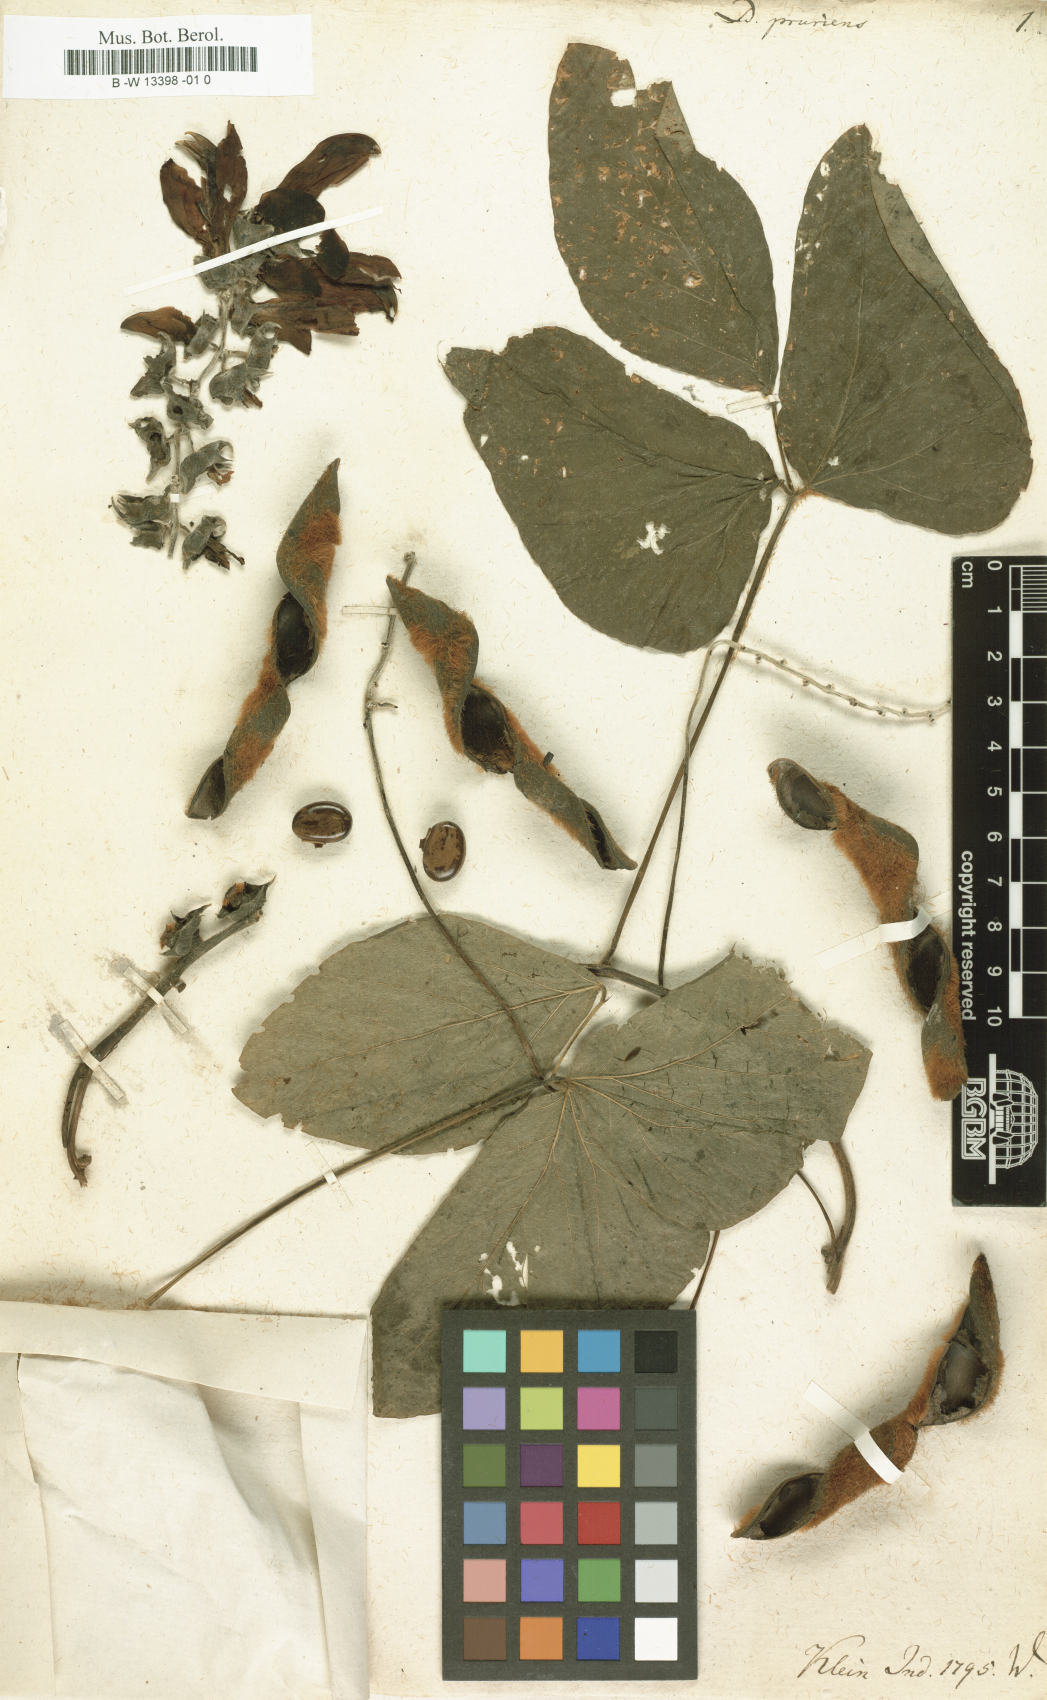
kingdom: Plantae
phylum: Tracheophyta
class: Magnoliopsida
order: Fabales
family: Fabaceae
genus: Mucuna
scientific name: Mucuna pruriens
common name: Cow-itch
